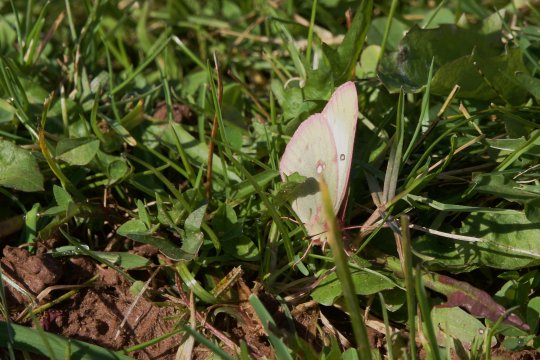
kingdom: Animalia
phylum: Arthropoda
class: Insecta
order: Lepidoptera
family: Pieridae
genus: Colias
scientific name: Colias philodice
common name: Clouded Sulphur
